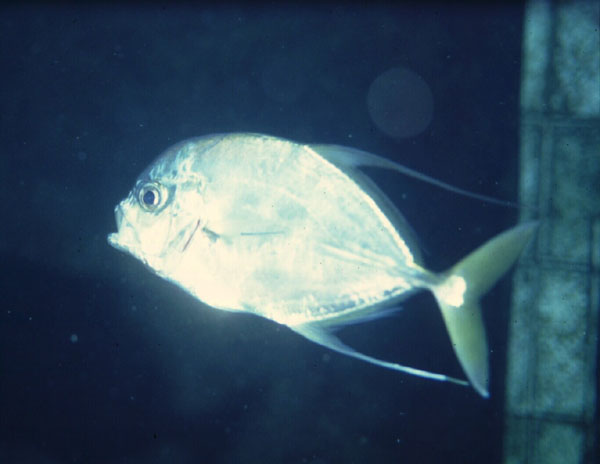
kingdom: Animalia
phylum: Chordata
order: Perciformes
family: Carangidae
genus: Carangoides
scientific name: Carangoides coeruleopinnatus
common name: Coastal trevally
